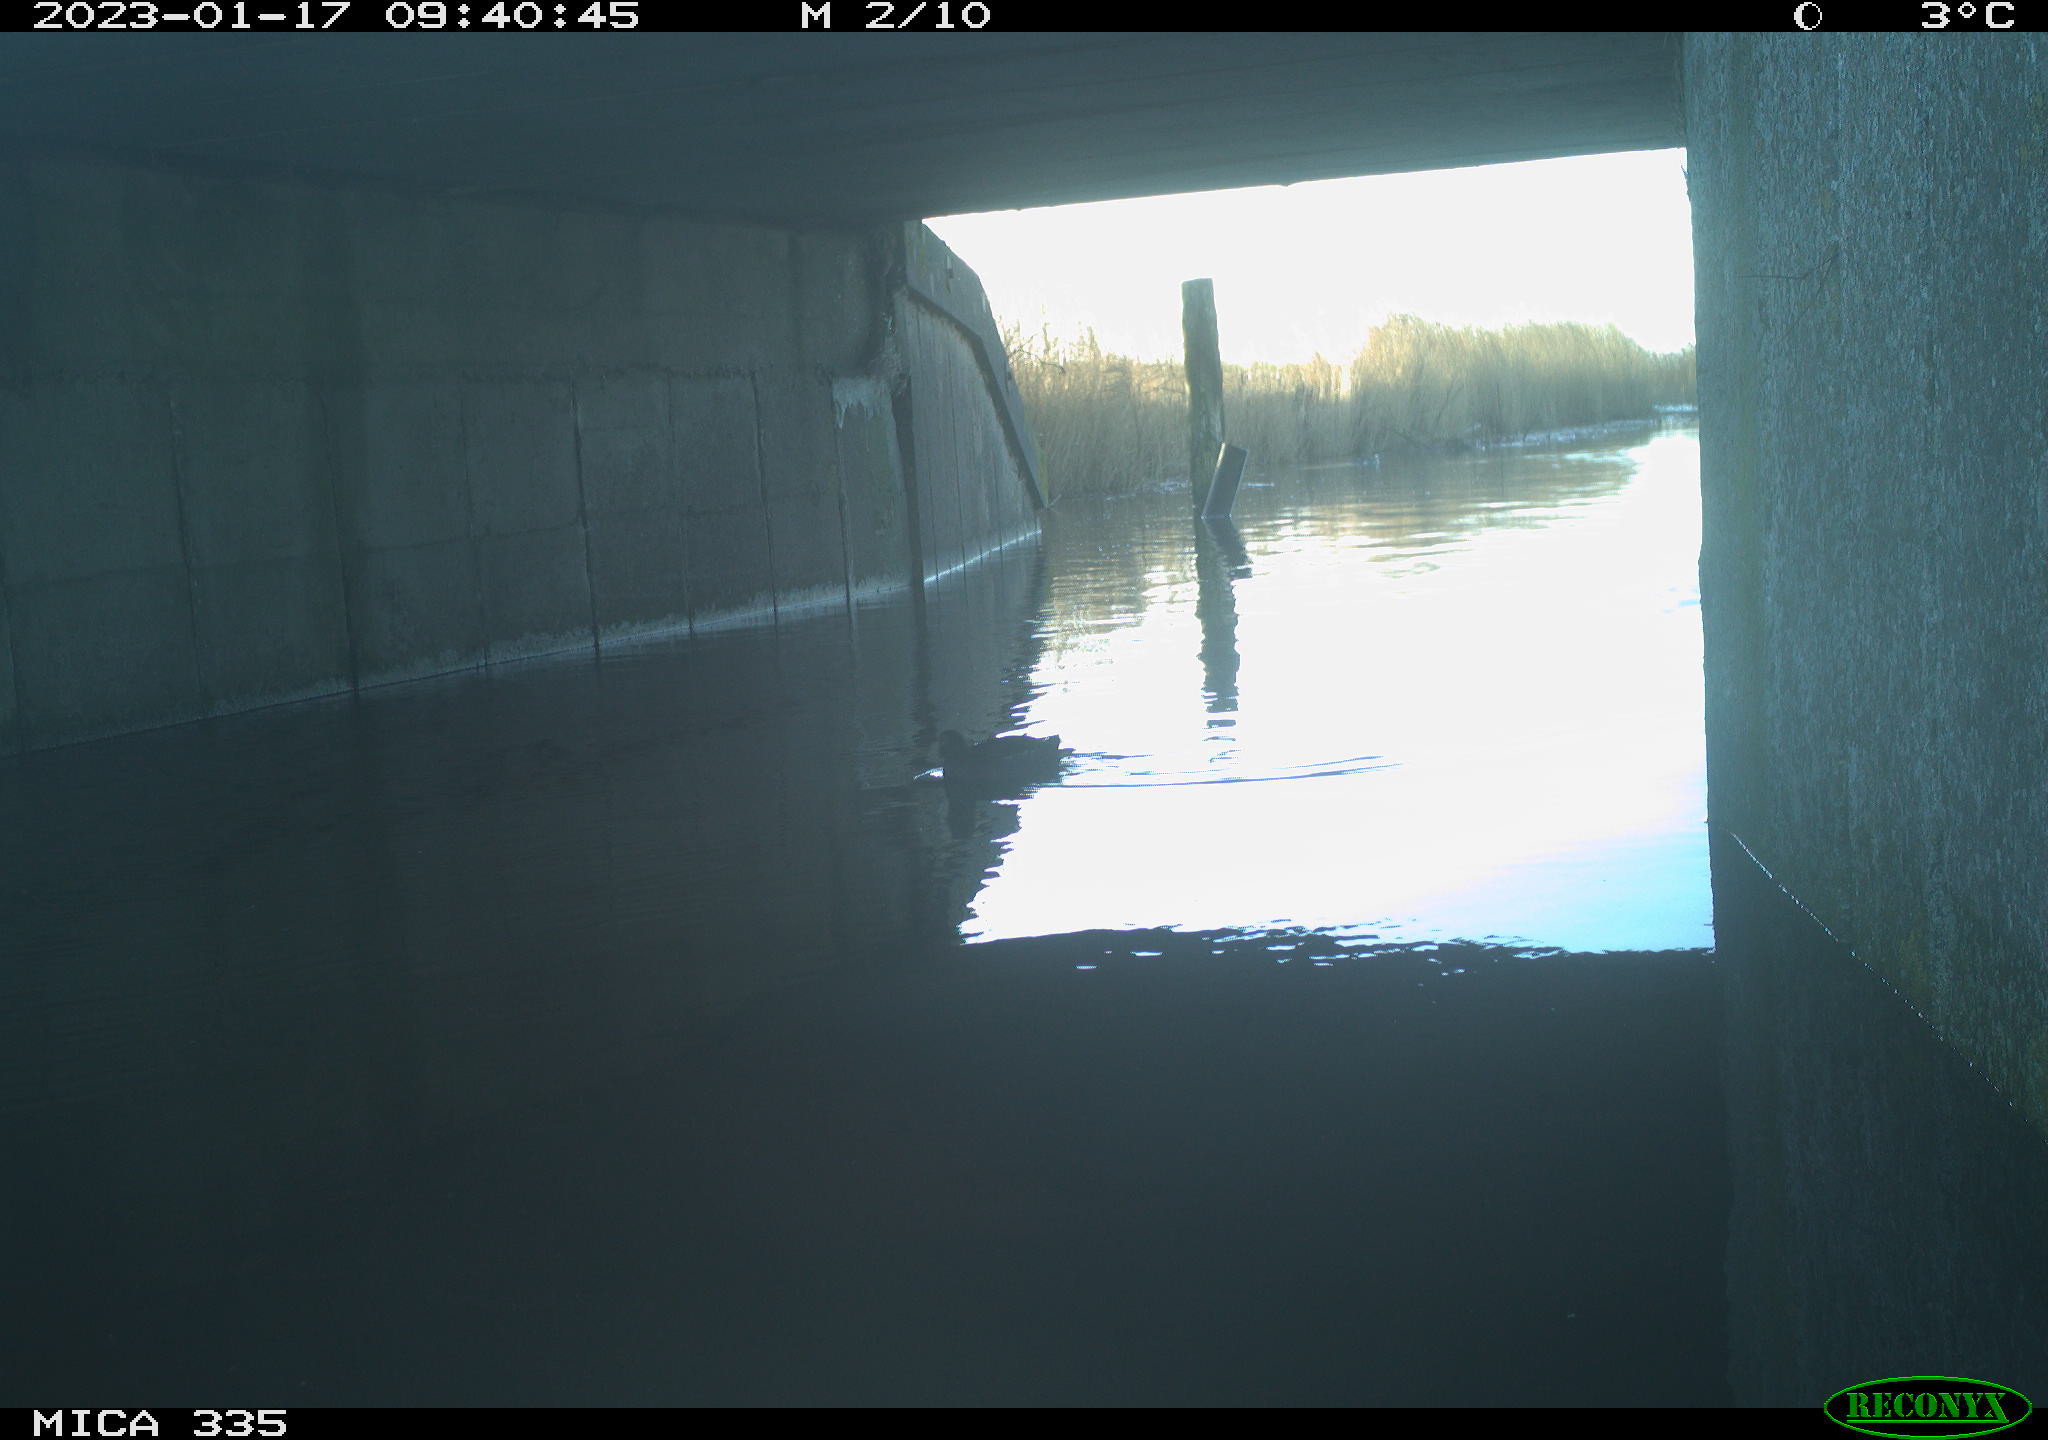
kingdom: Animalia
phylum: Chordata
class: Aves
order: Gruiformes
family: Rallidae
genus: Gallinula
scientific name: Gallinula chloropus
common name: Common moorhen
